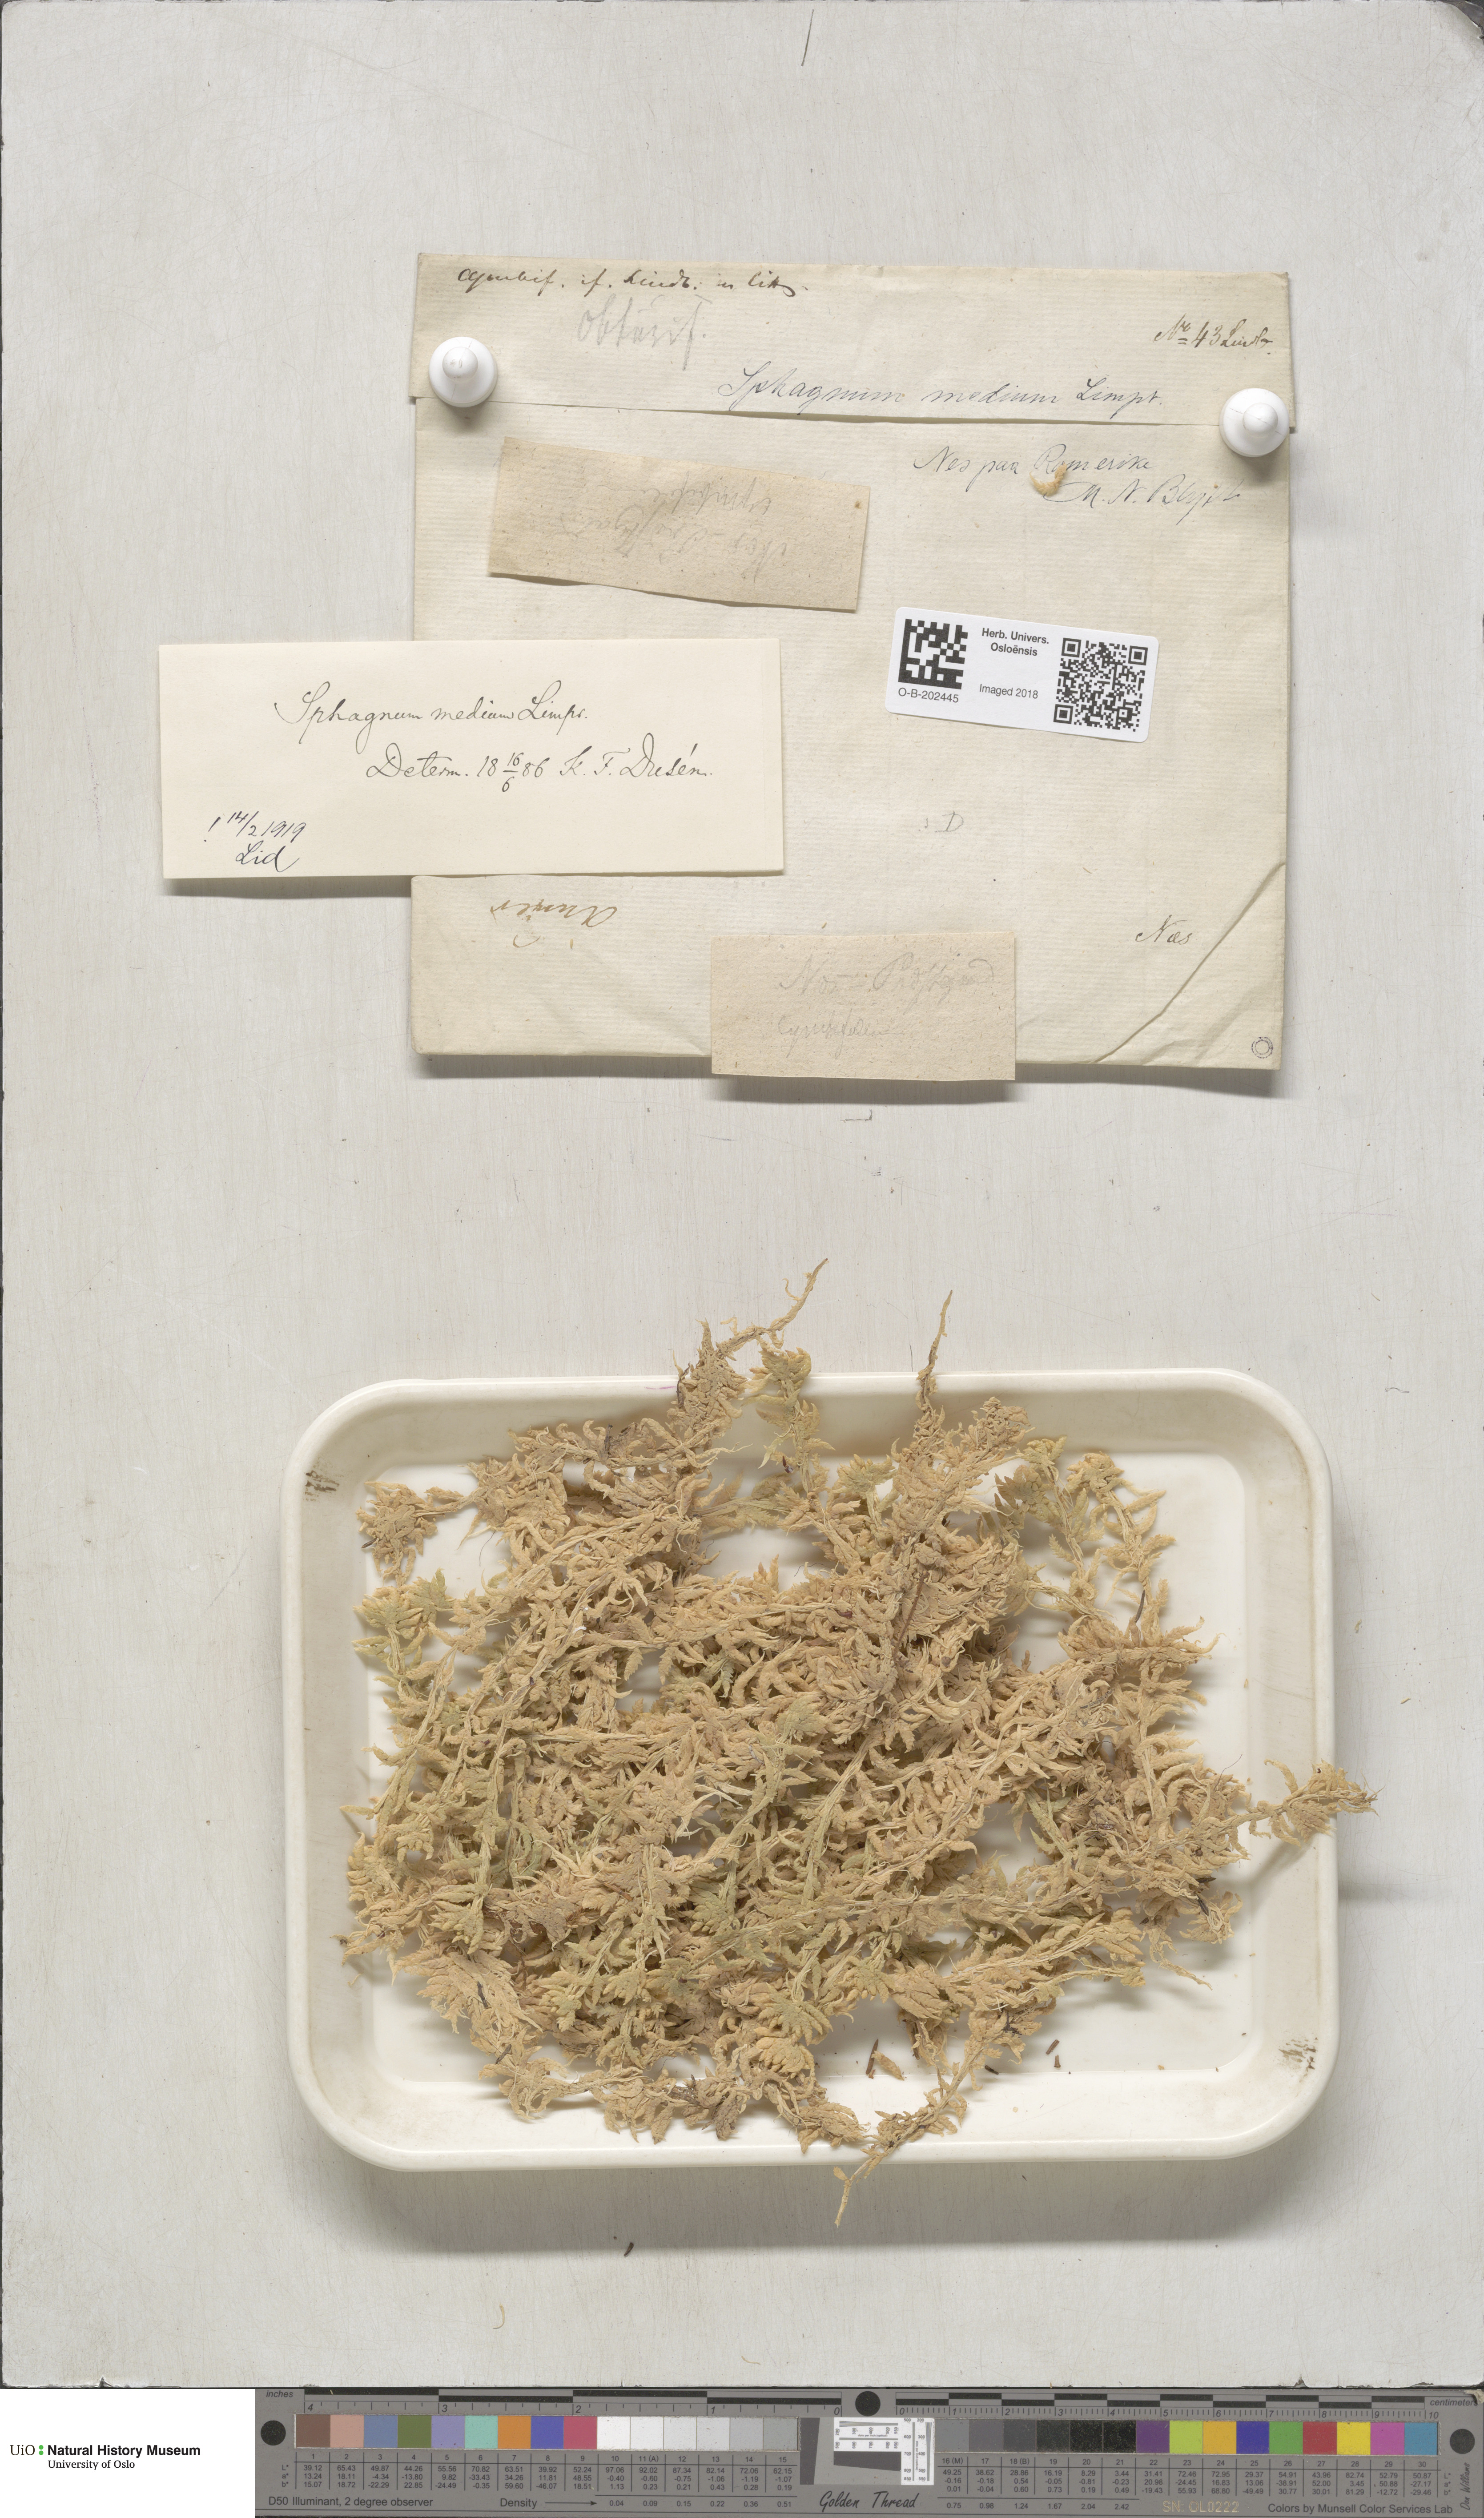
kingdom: Plantae
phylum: Bryophyta
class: Sphagnopsida
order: Sphagnales
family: Sphagnaceae
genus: Sphagnum
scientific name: Sphagnum magellanicum
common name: Magellan's peat moss
